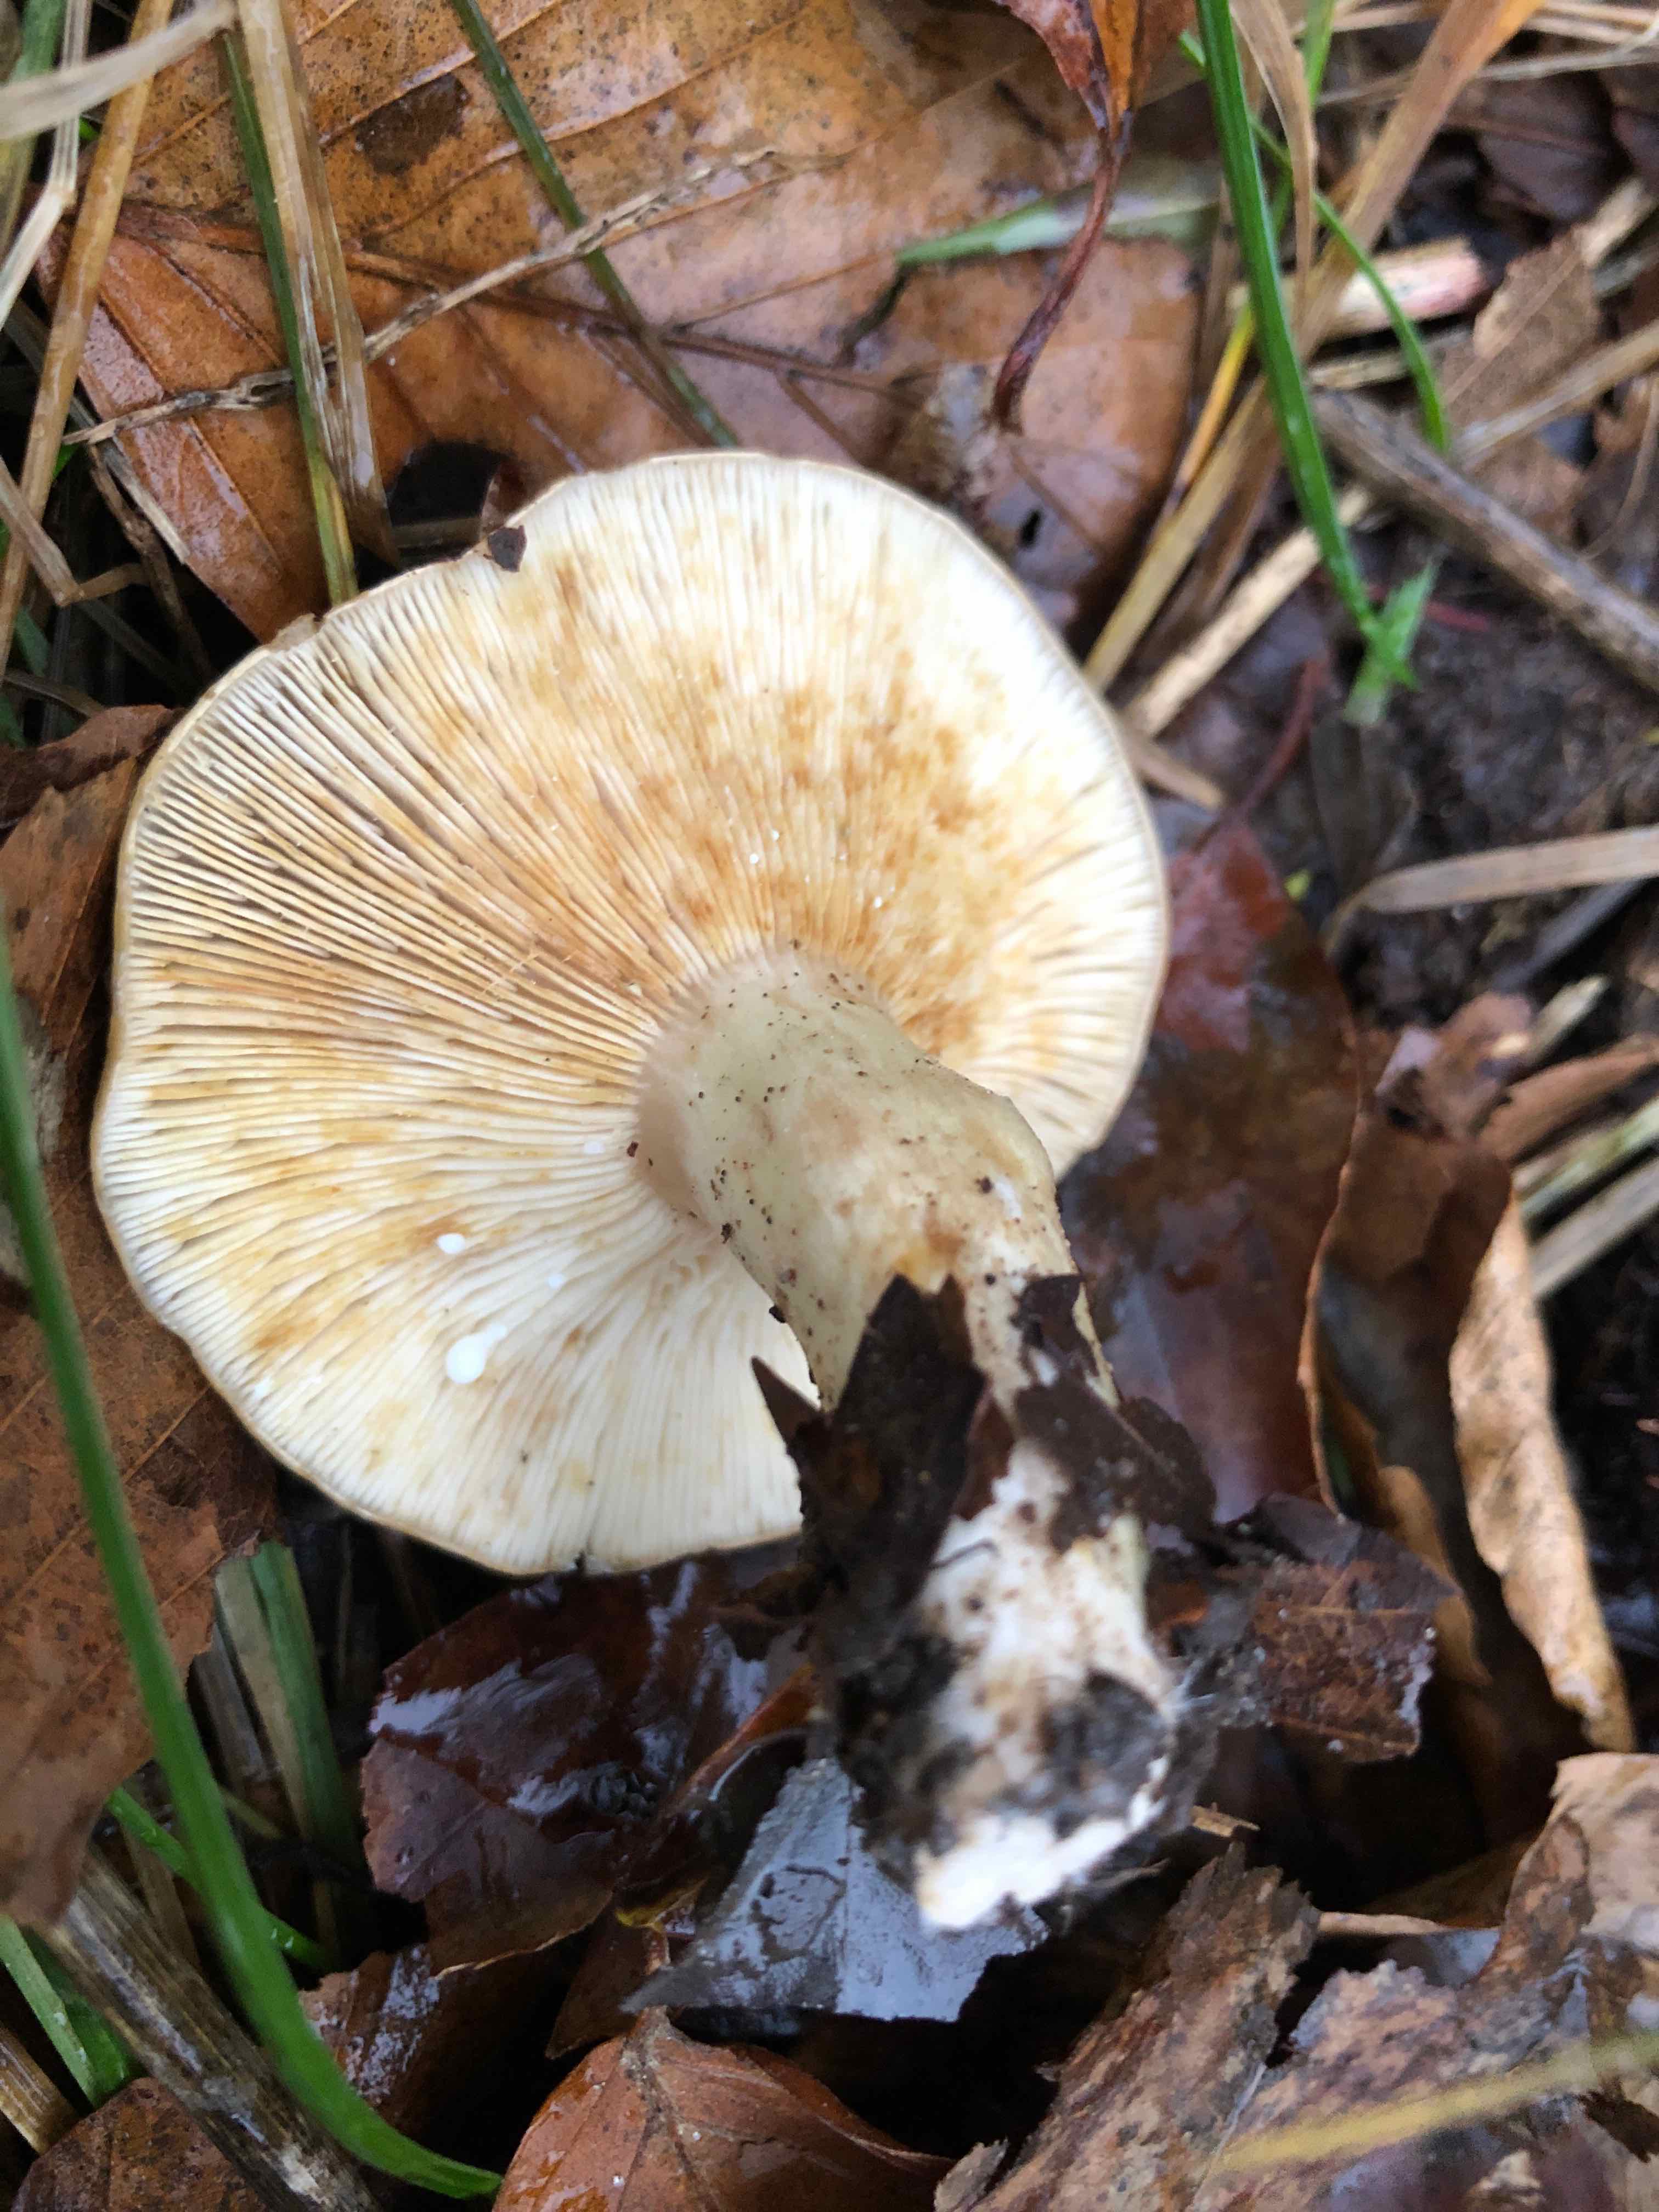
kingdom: Fungi
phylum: Basidiomycota
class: Agaricomycetes
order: Russulales
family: Russulaceae
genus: Lactarius
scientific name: Lactarius blennius
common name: dråbeplettet mælkehat
